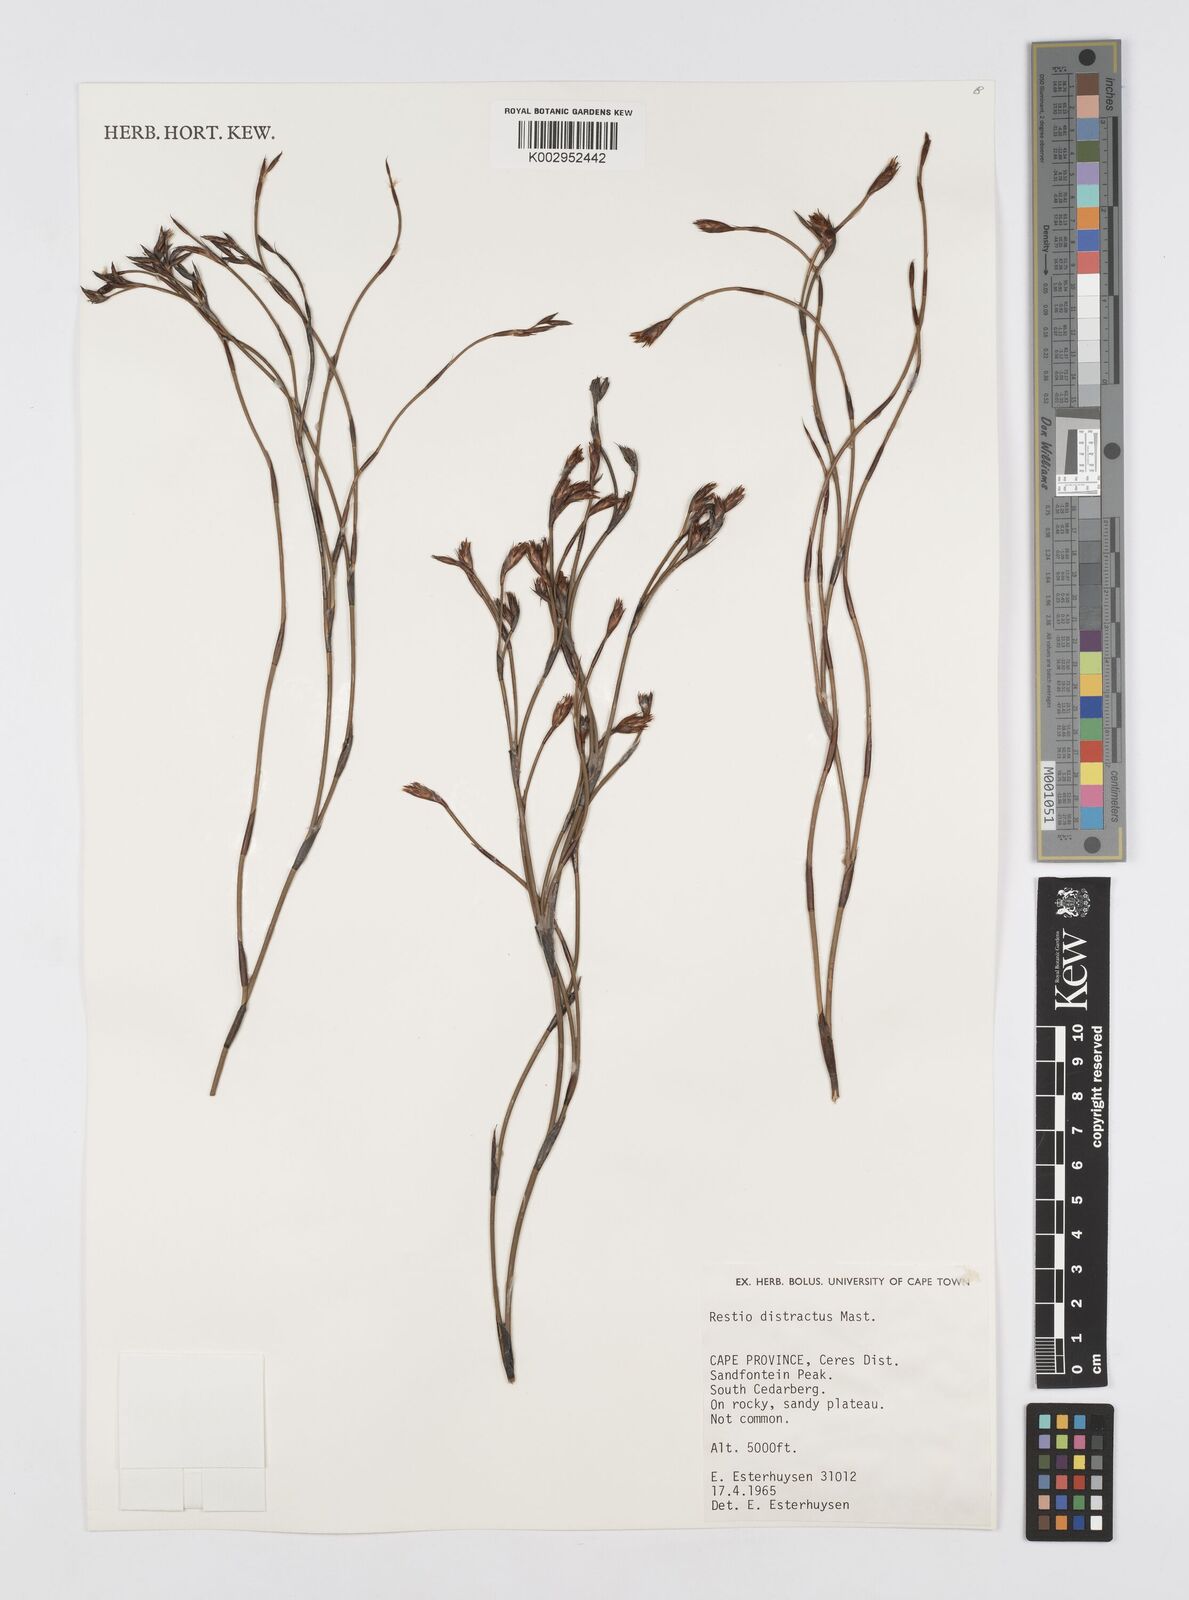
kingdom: Plantae
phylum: Tracheophyta
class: Liliopsida
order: Poales
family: Restionaceae
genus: Restio
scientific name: Restio distractus
